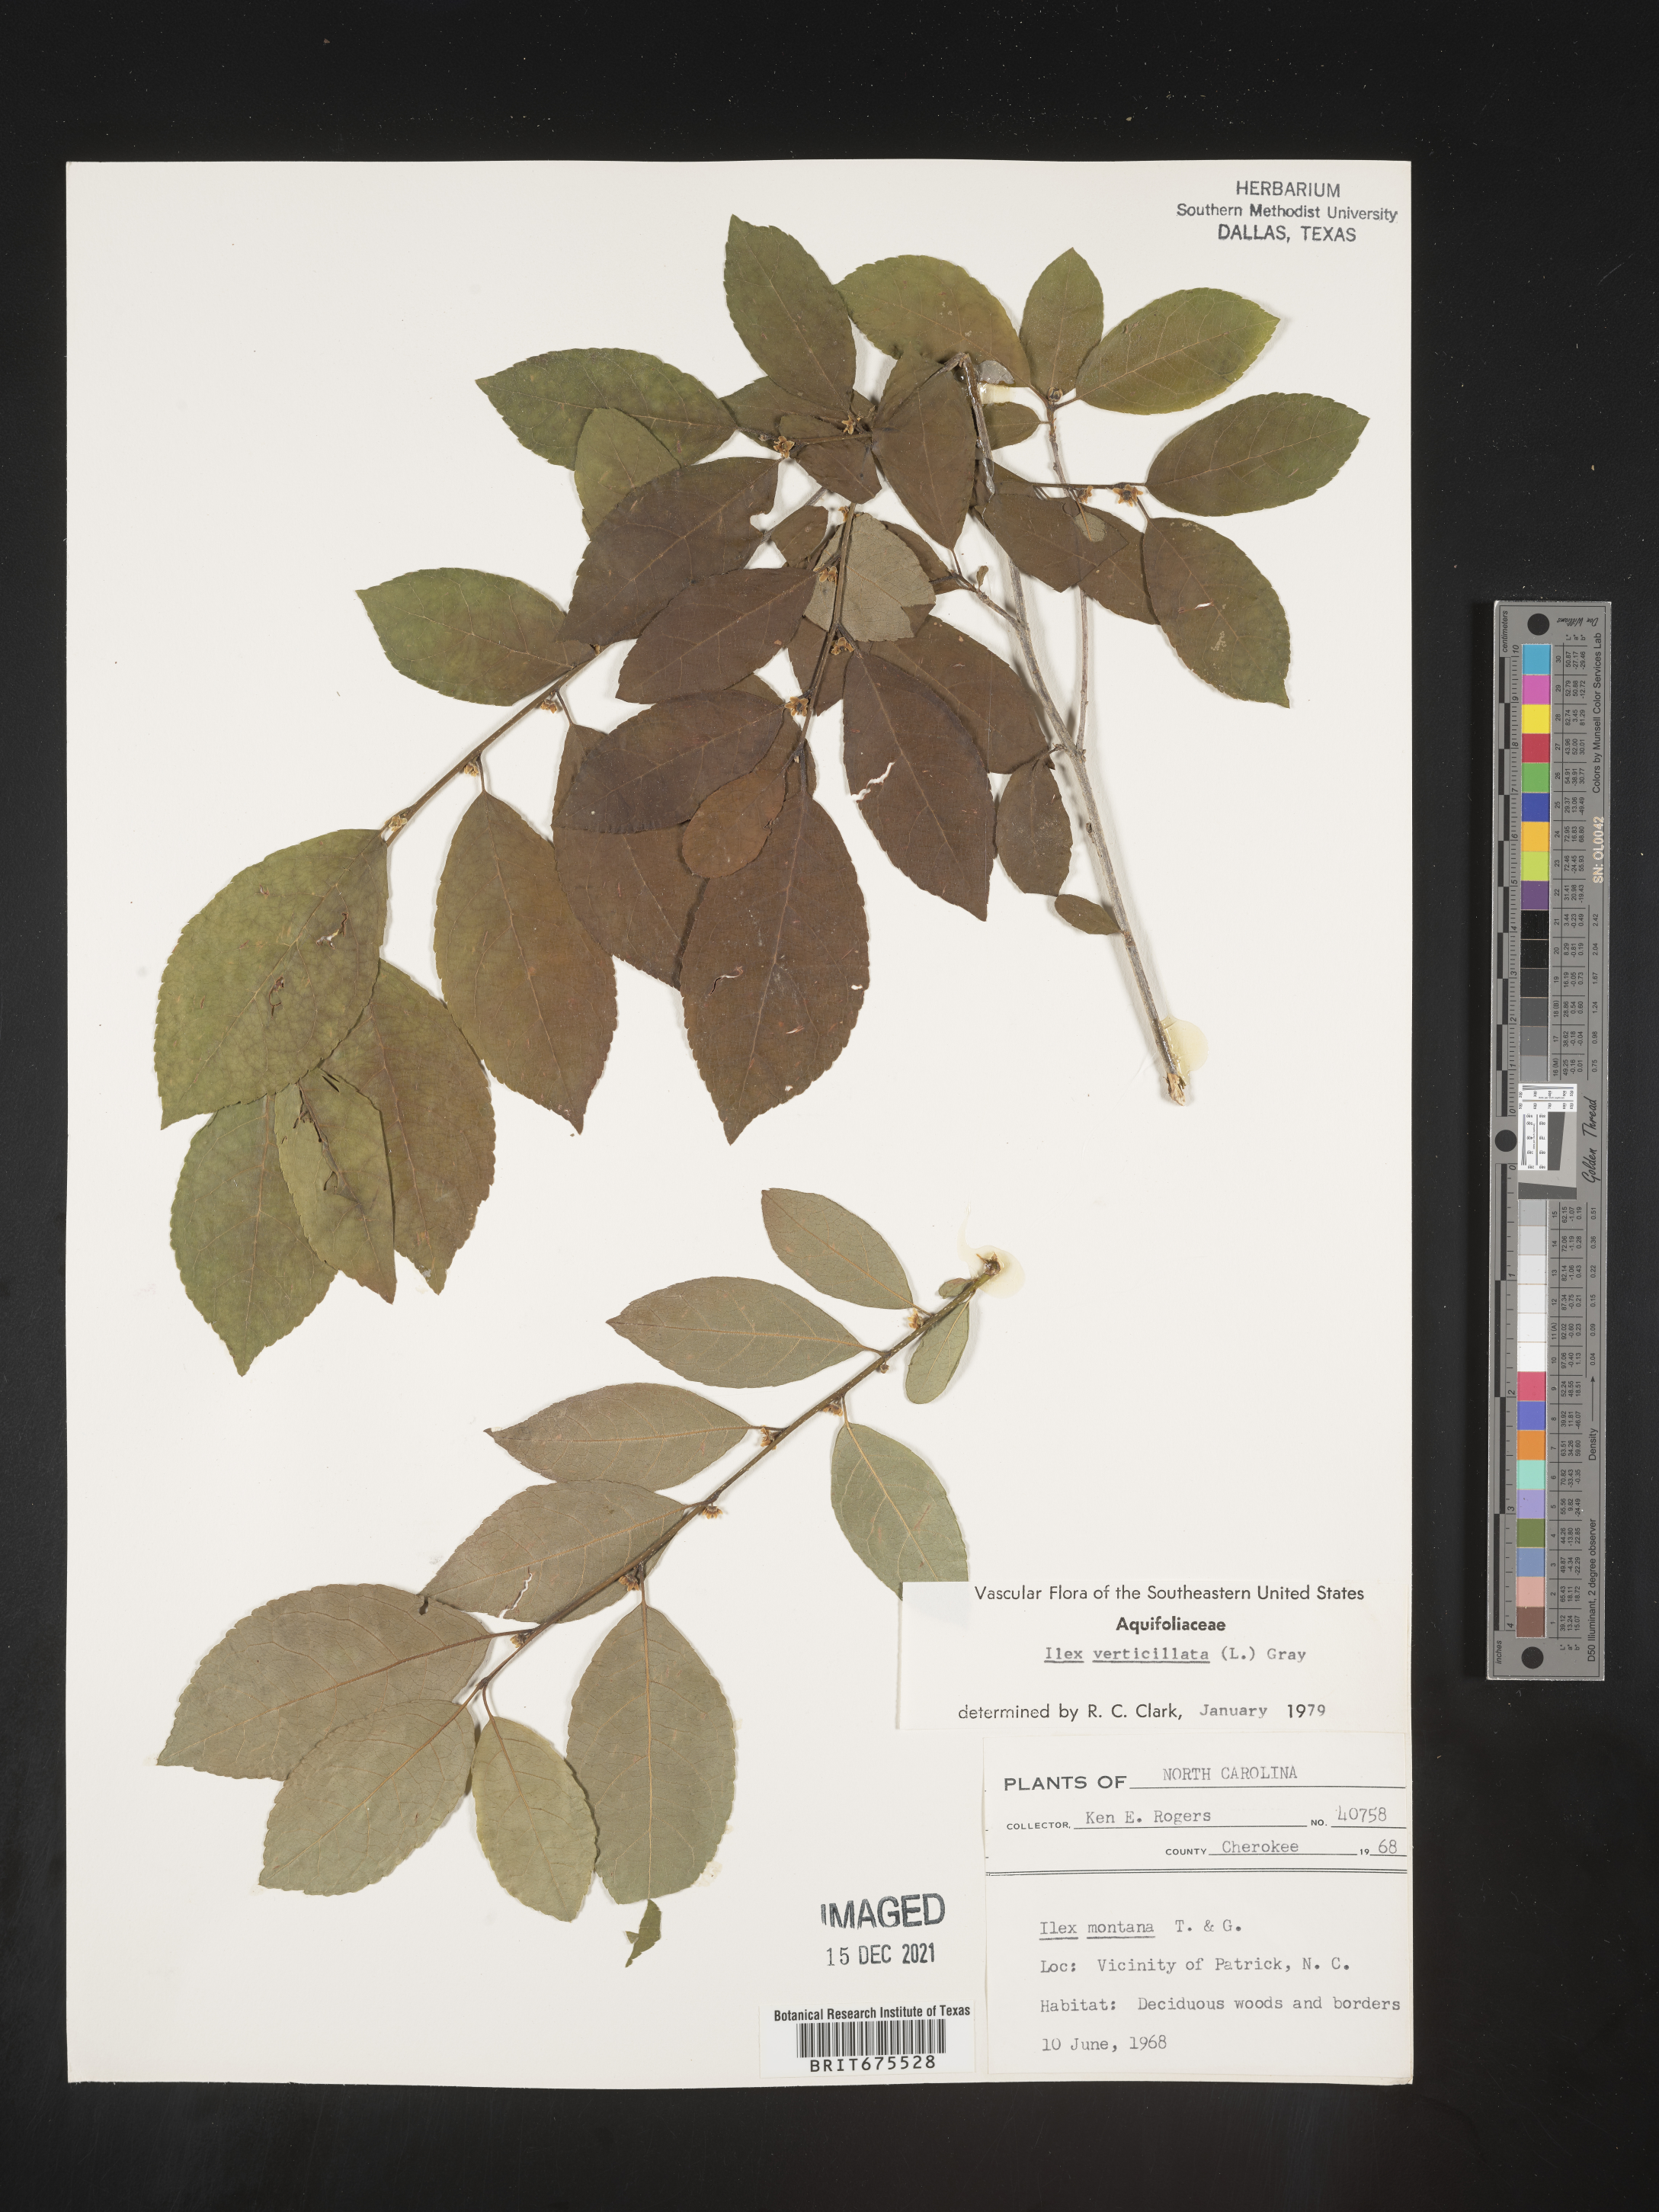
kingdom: Plantae
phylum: Tracheophyta
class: Magnoliopsida
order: Aquifoliales
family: Aquifoliaceae
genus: Ilex
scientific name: Ilex verticillata
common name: Virginia winterberry
